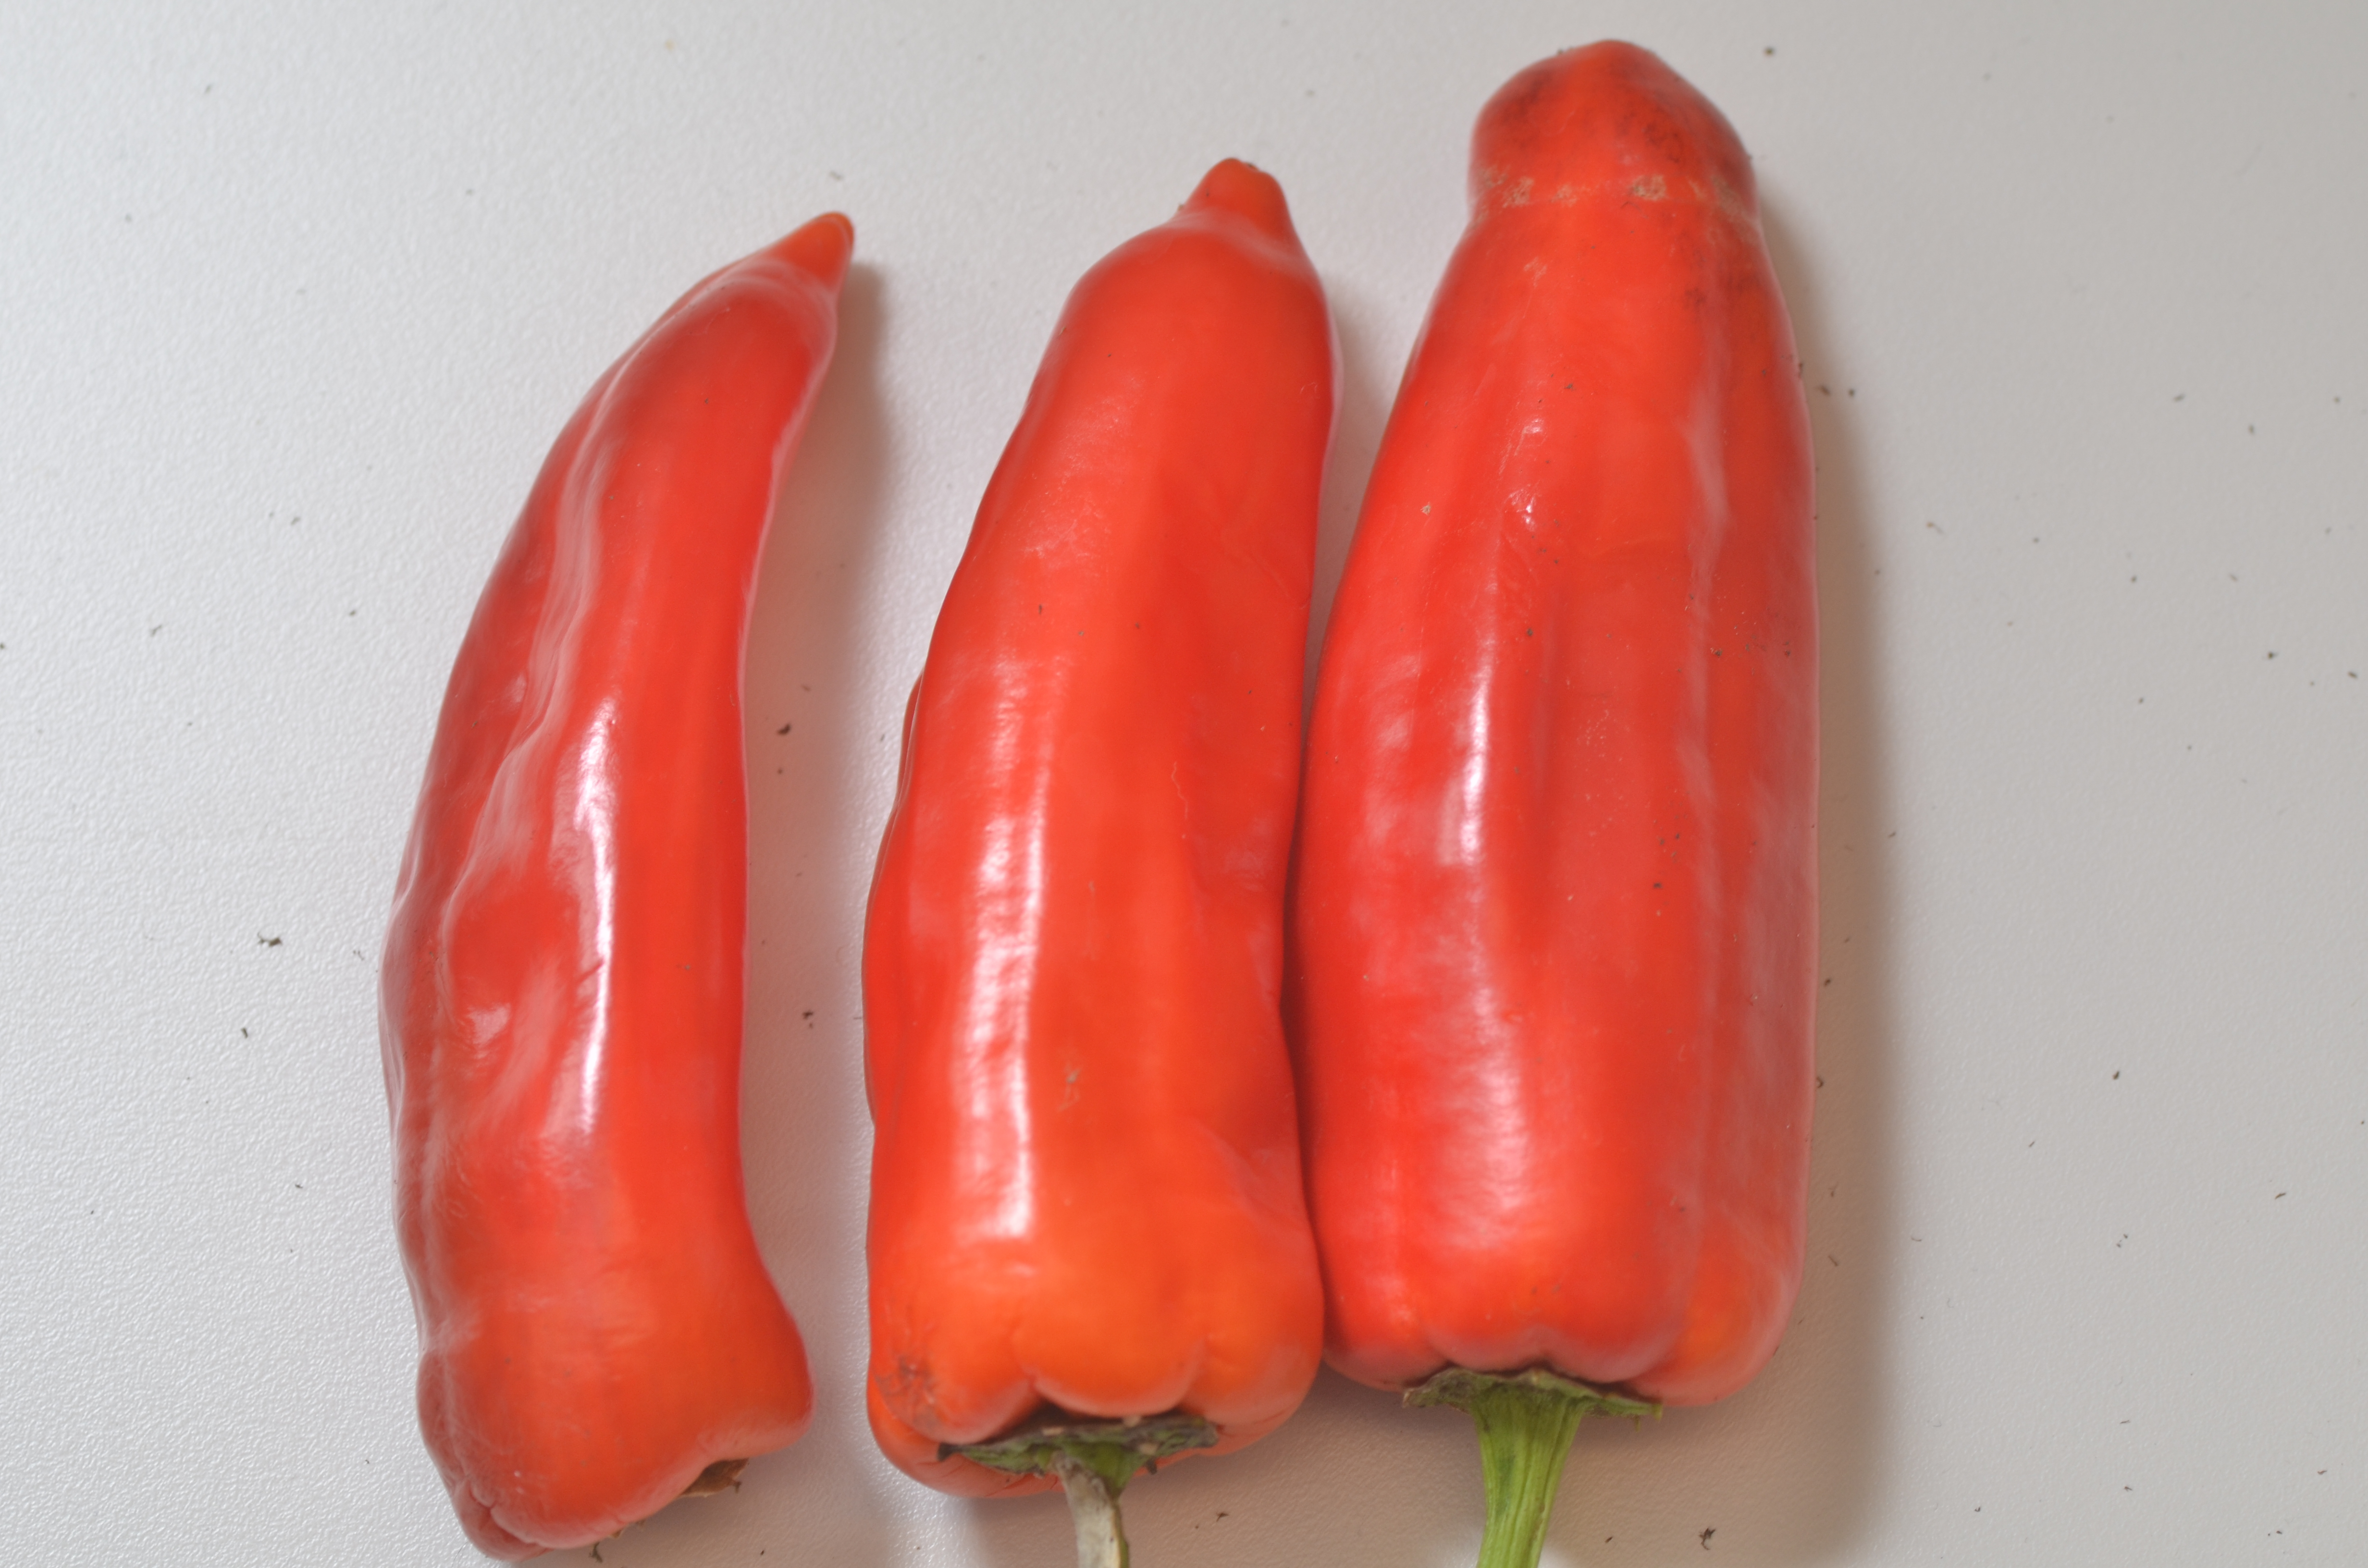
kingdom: Plantae
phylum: Tracheophyta
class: Magnoliopsida
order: Solanales
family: Solanaceae
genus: Capsicum
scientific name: Capsicum annuum
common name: Sweet pepper
